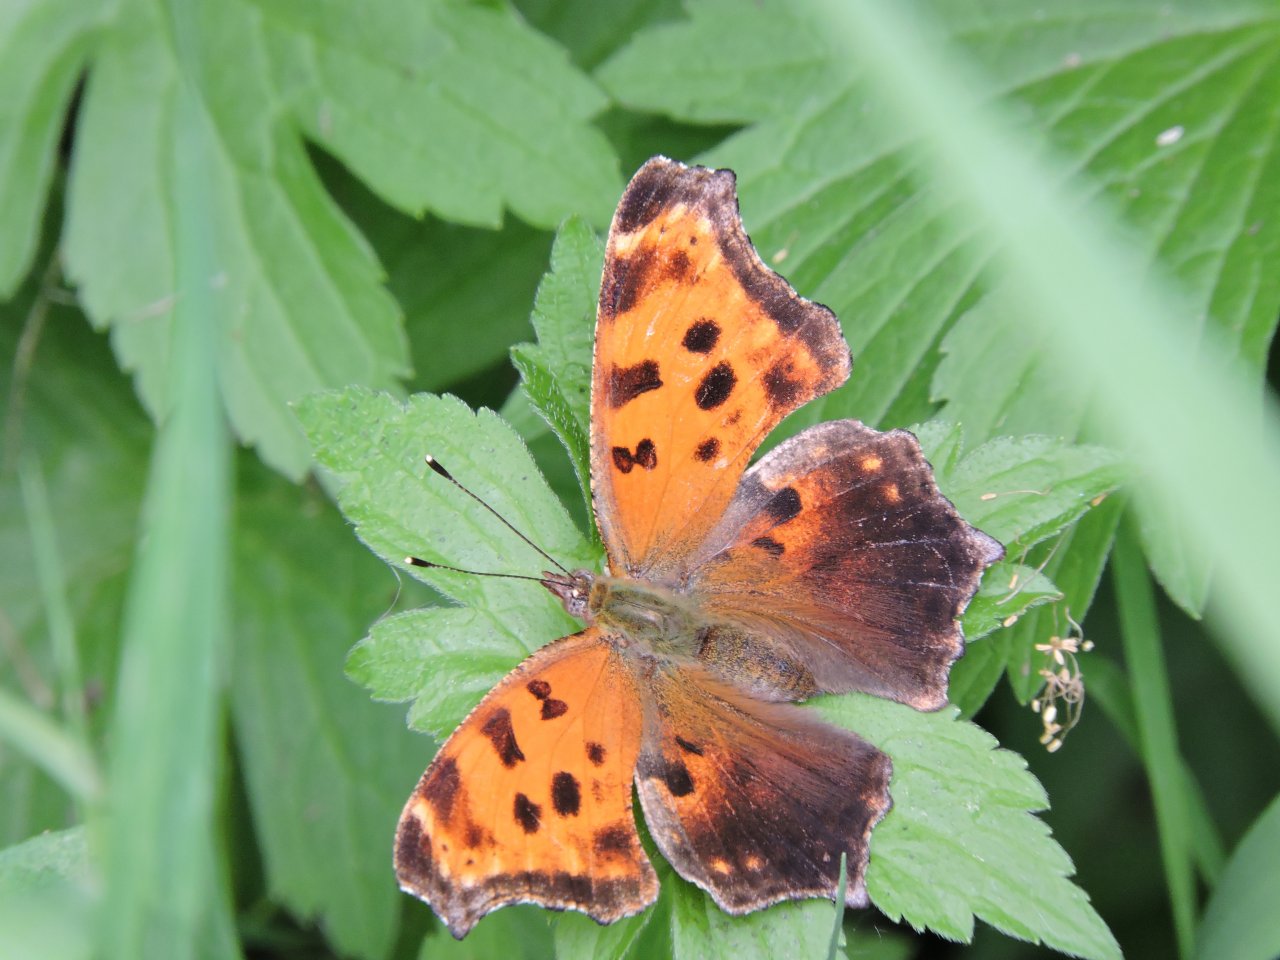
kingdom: Animalia
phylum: Arthropoda
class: Insecta
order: Lepidoptera
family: Nymphalidae
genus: Polygonia
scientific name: Polygonia comma
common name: Eastern Comma
